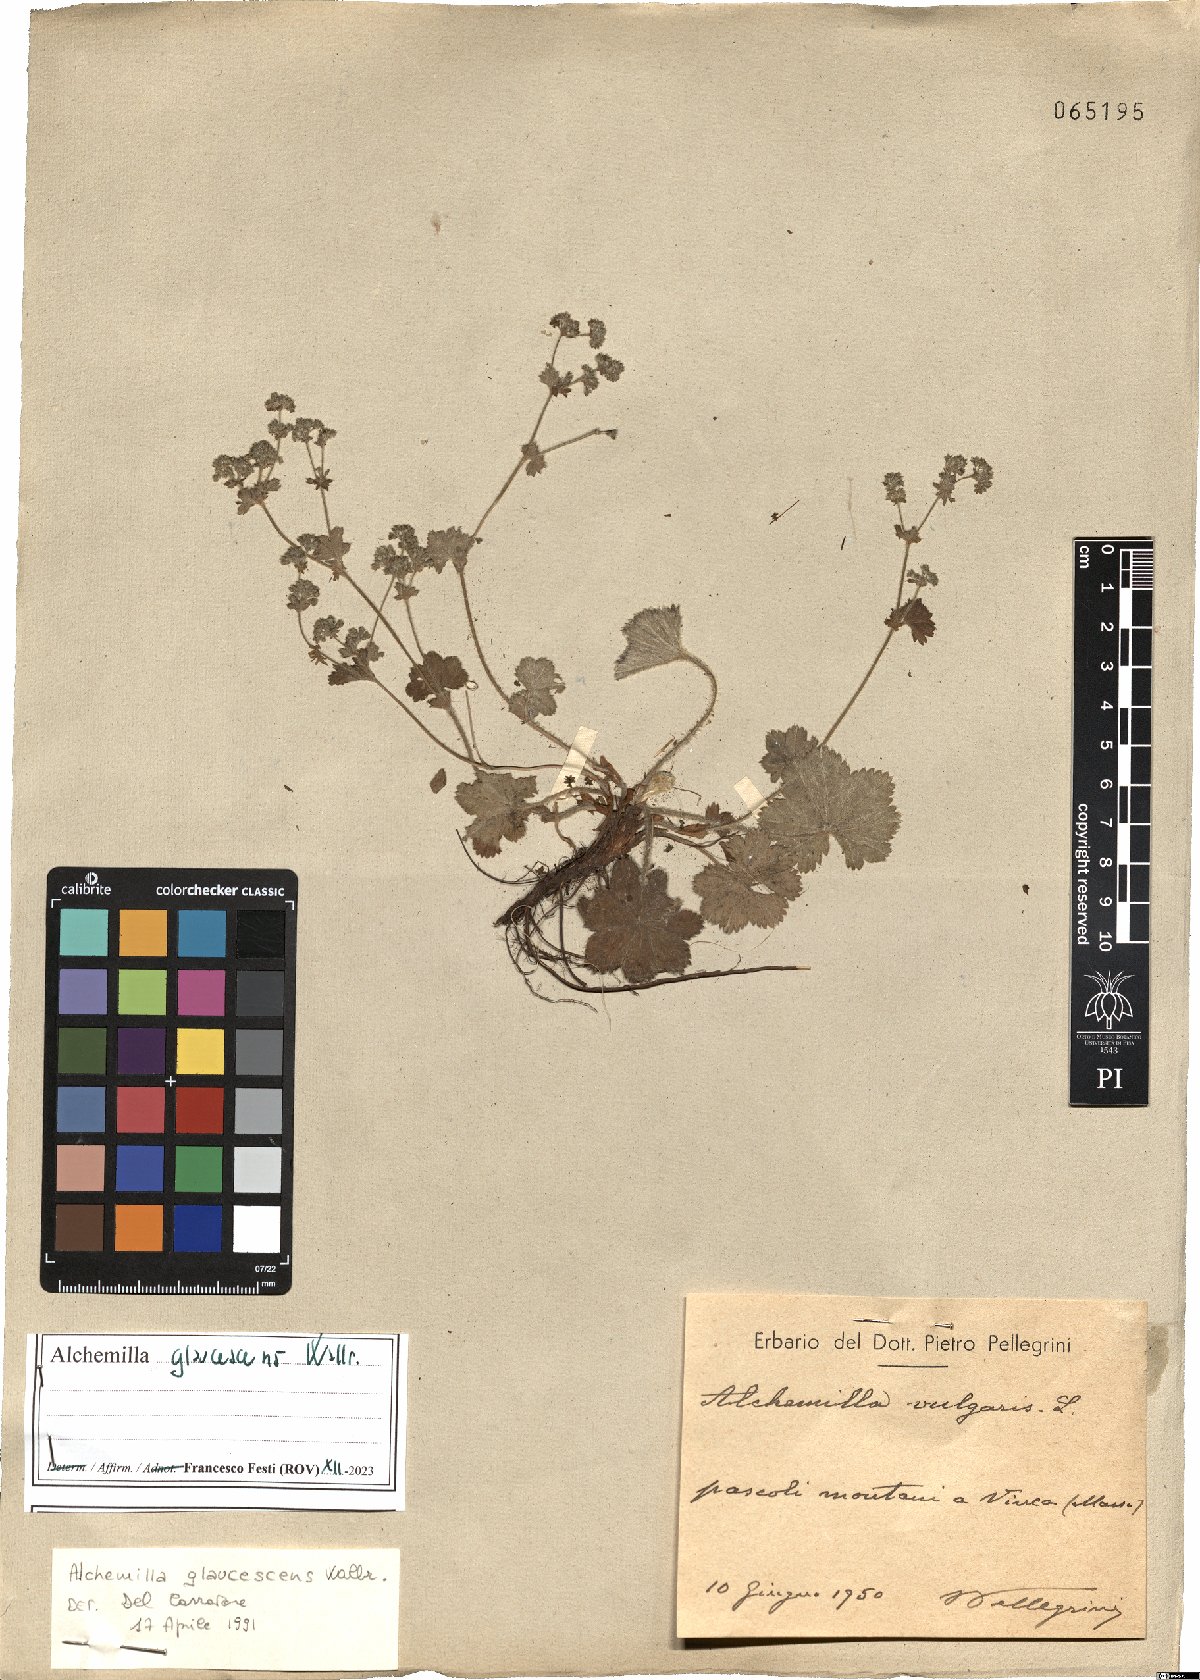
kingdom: Plantae
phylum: Tracheophyta
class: Magnoliopsida
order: Rosales
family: Rosaceae
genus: Alchemilla
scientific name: Alchemilla glaucescens
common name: Silky lady's mantle
